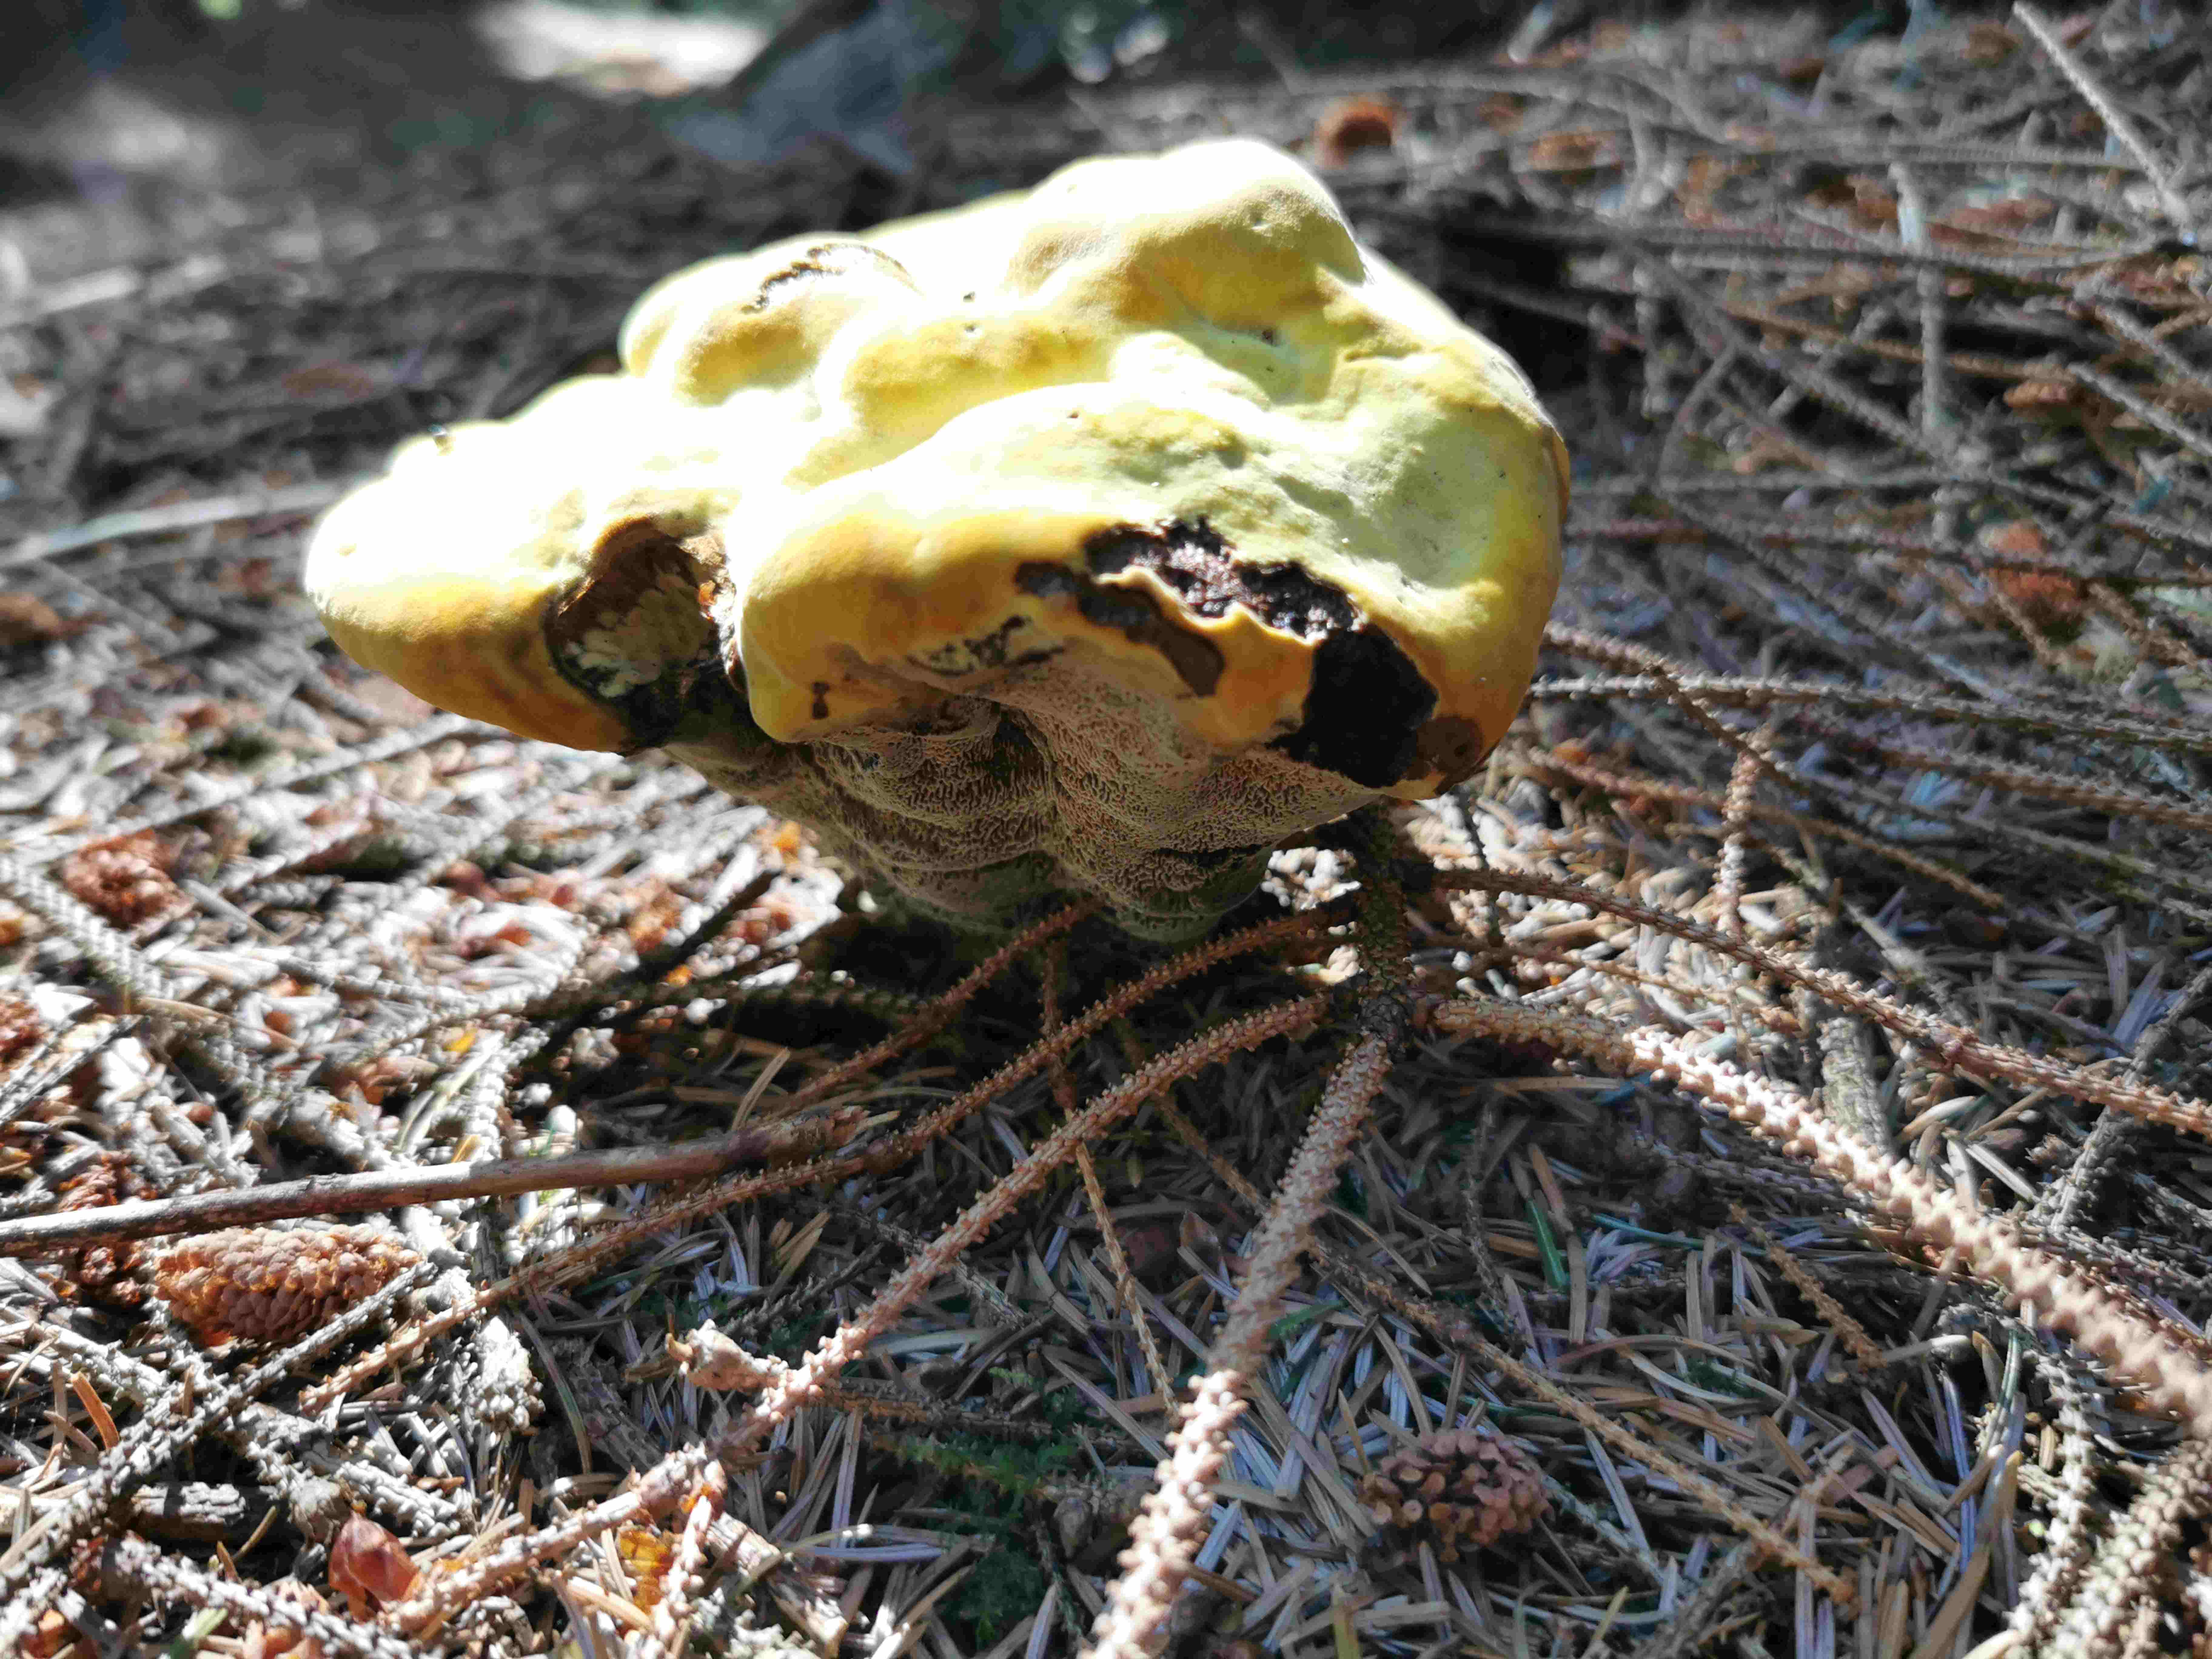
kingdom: Fungi
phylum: Basidiomycota
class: Agaricomycetes
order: Polyporales
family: Laetiporaceae
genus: Phaeolus
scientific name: Phaeolus schweinitzii
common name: brunporesvamp
